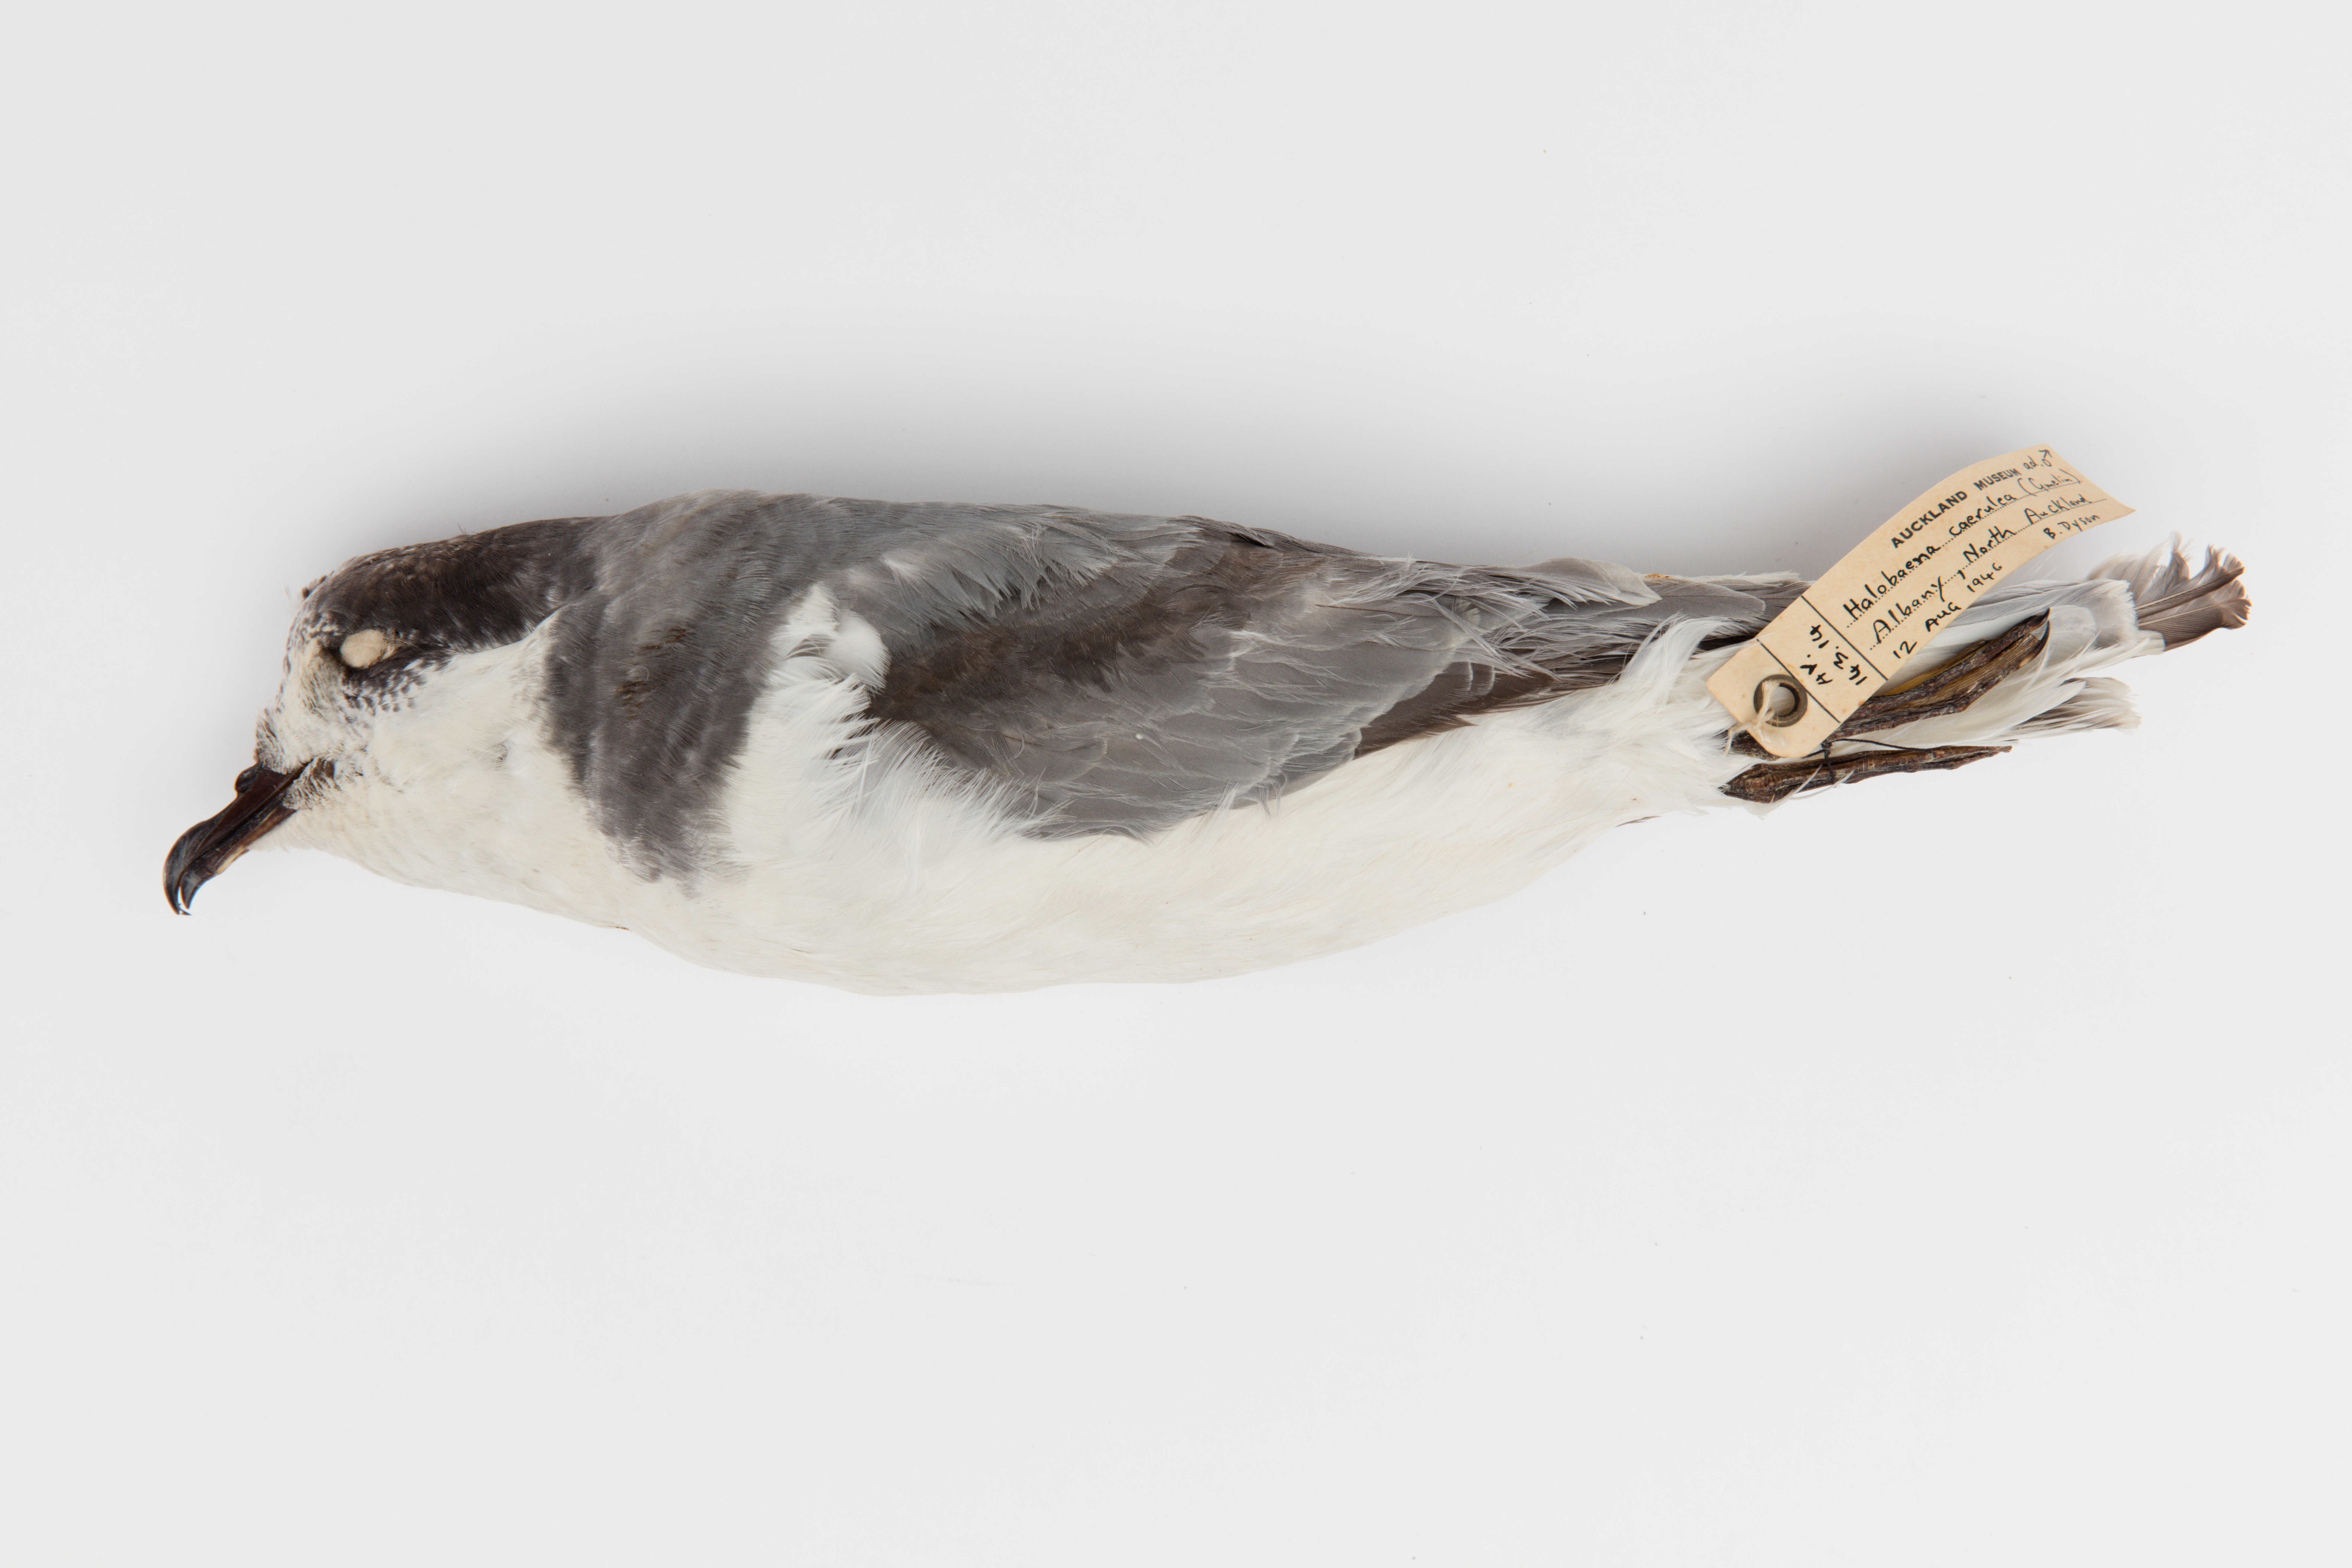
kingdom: Animalia
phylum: Chordata
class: Aves
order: Procellariiformes
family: Procellariidae
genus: Halobaena
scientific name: Halobaena caerulea
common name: Blue petrel
